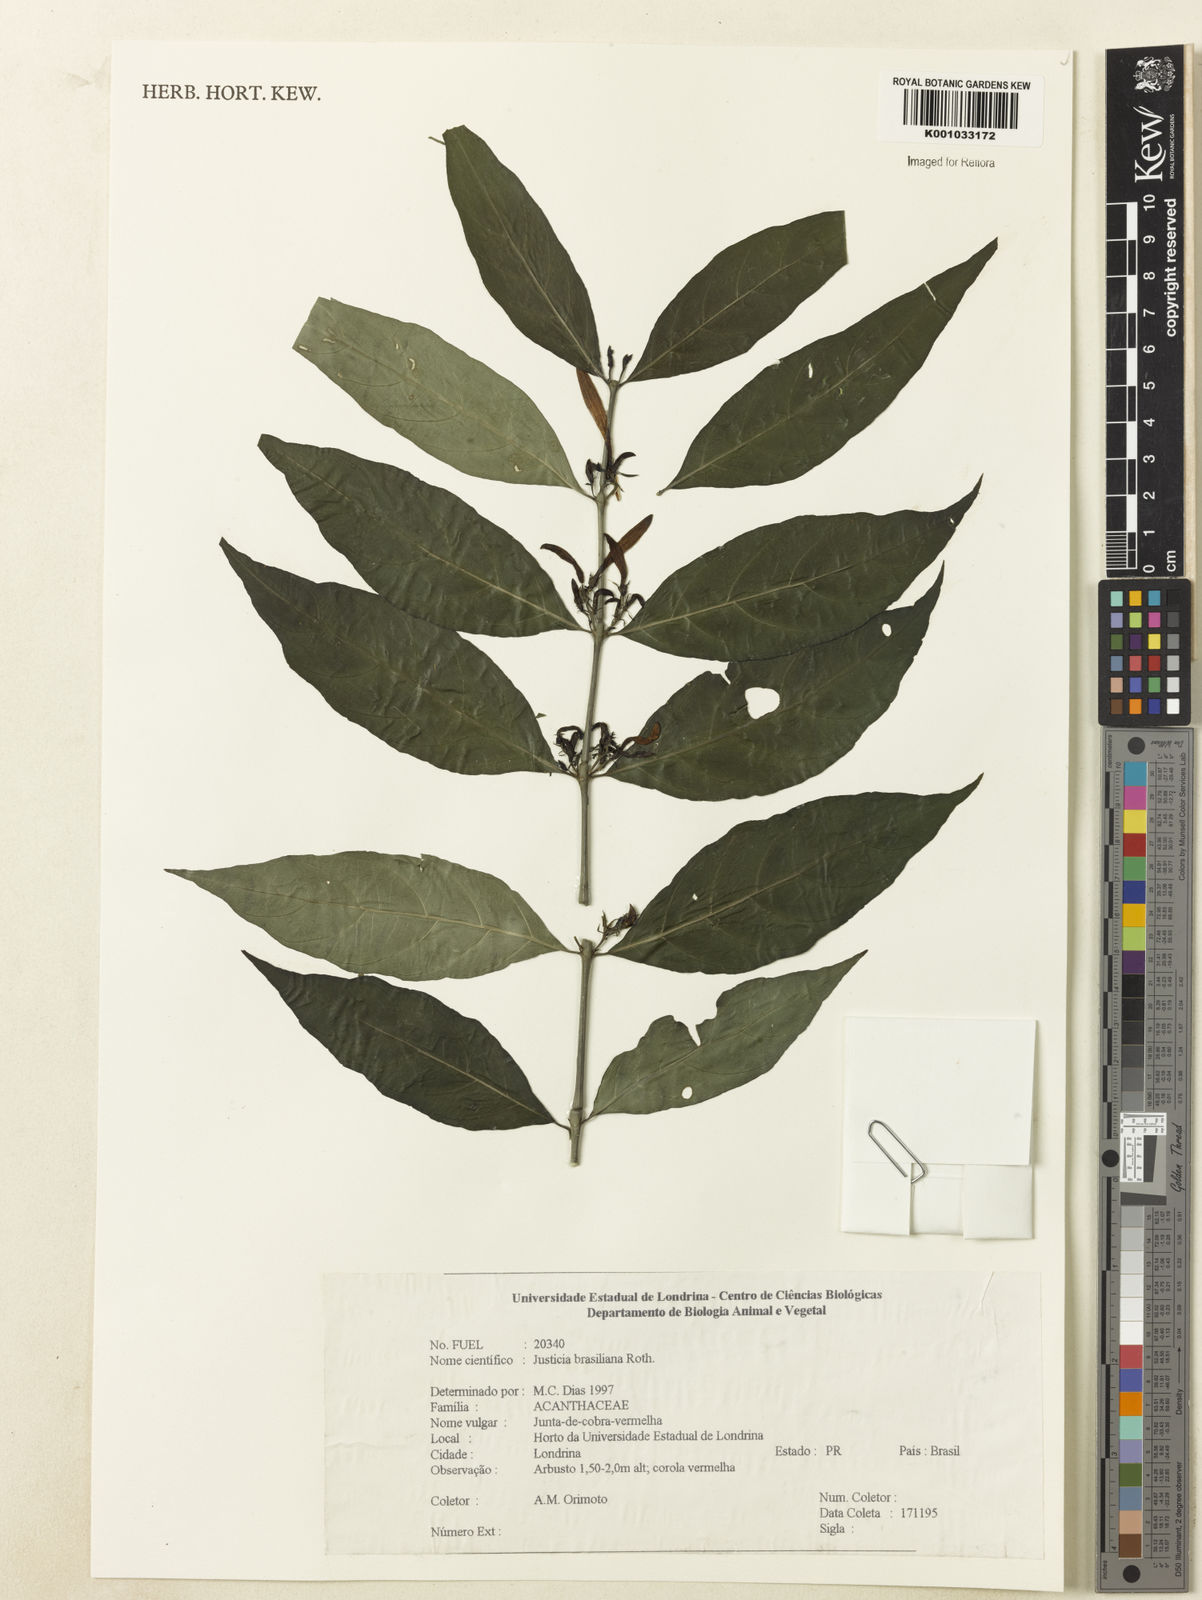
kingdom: Plantae
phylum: Tracheophyta
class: Magnoliopsida
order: Lamiales
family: Acanthaceae
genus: Justicia
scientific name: Justicia brasiliana
